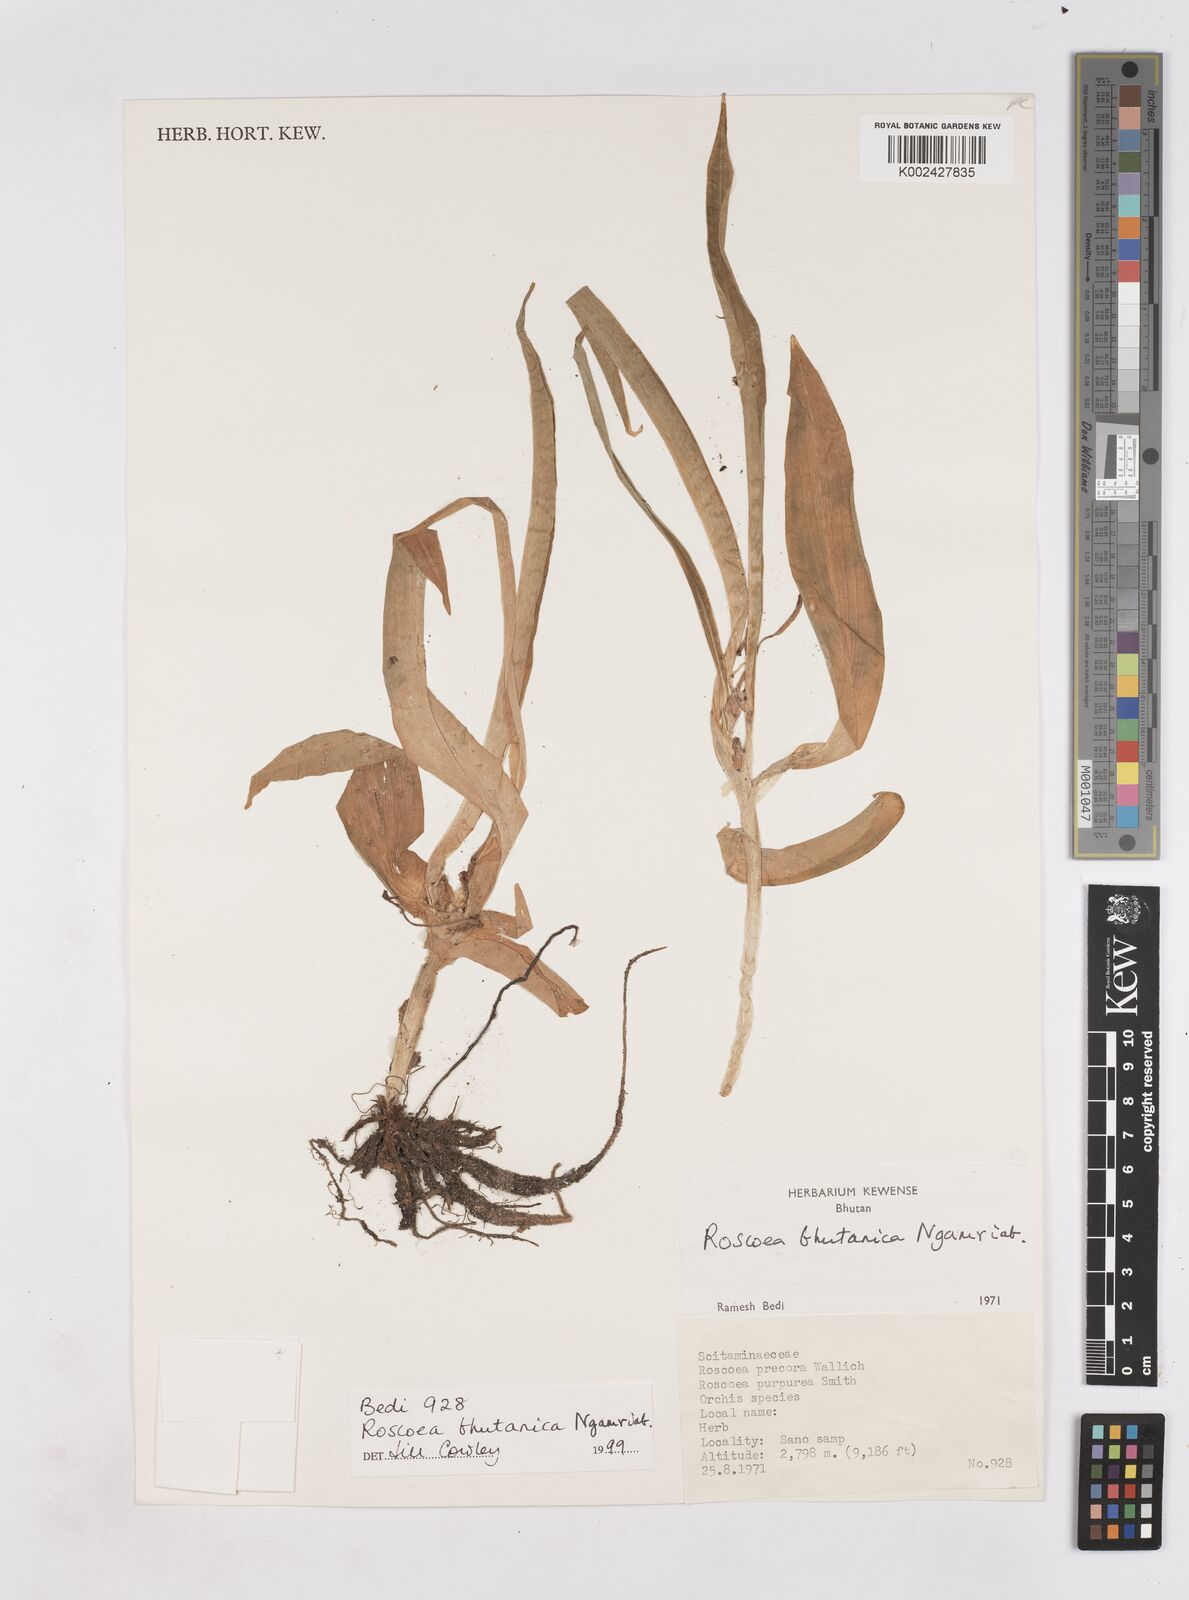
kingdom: Plantae
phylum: Tracheophyta
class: Liliopsida
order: Zingiberales
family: Zingiberaceae
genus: Roscoea
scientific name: Roscoea bhutanica
